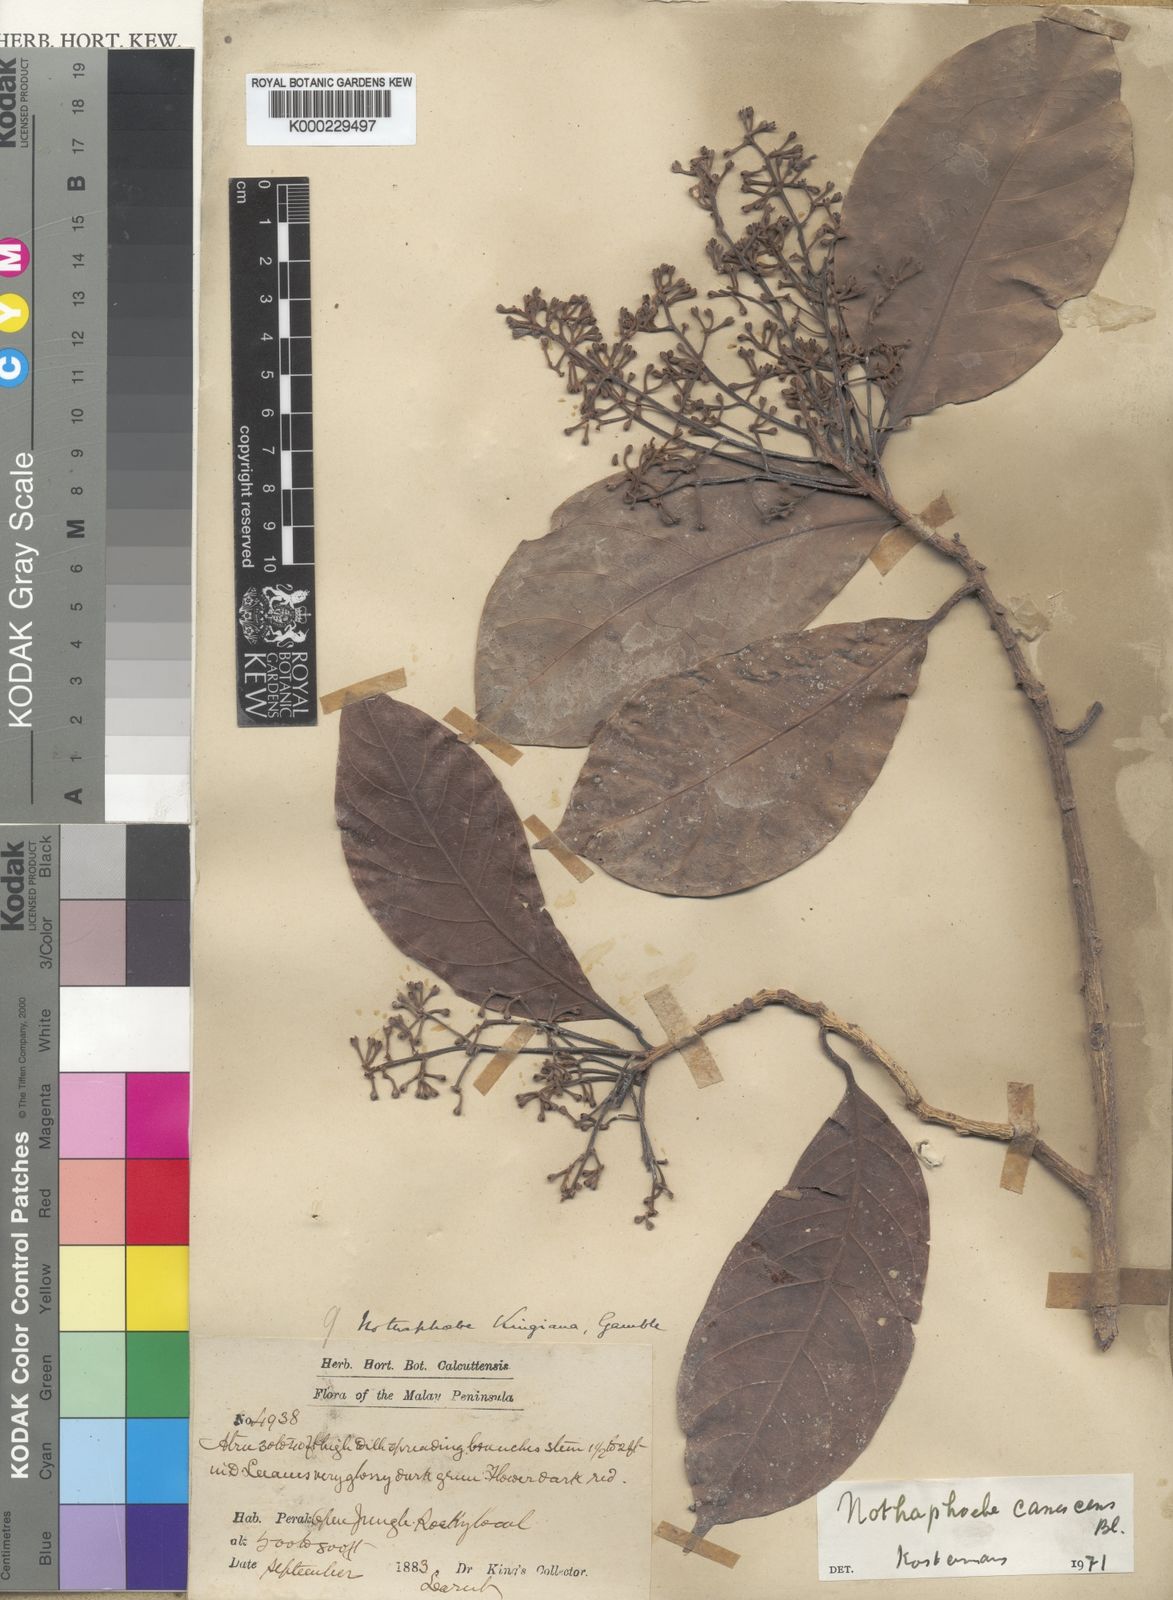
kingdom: Plantae
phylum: Tracheophyta
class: Magnoliopsida
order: Laurales
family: Lauraceae
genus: Phoebe
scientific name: Phoebe canescens
